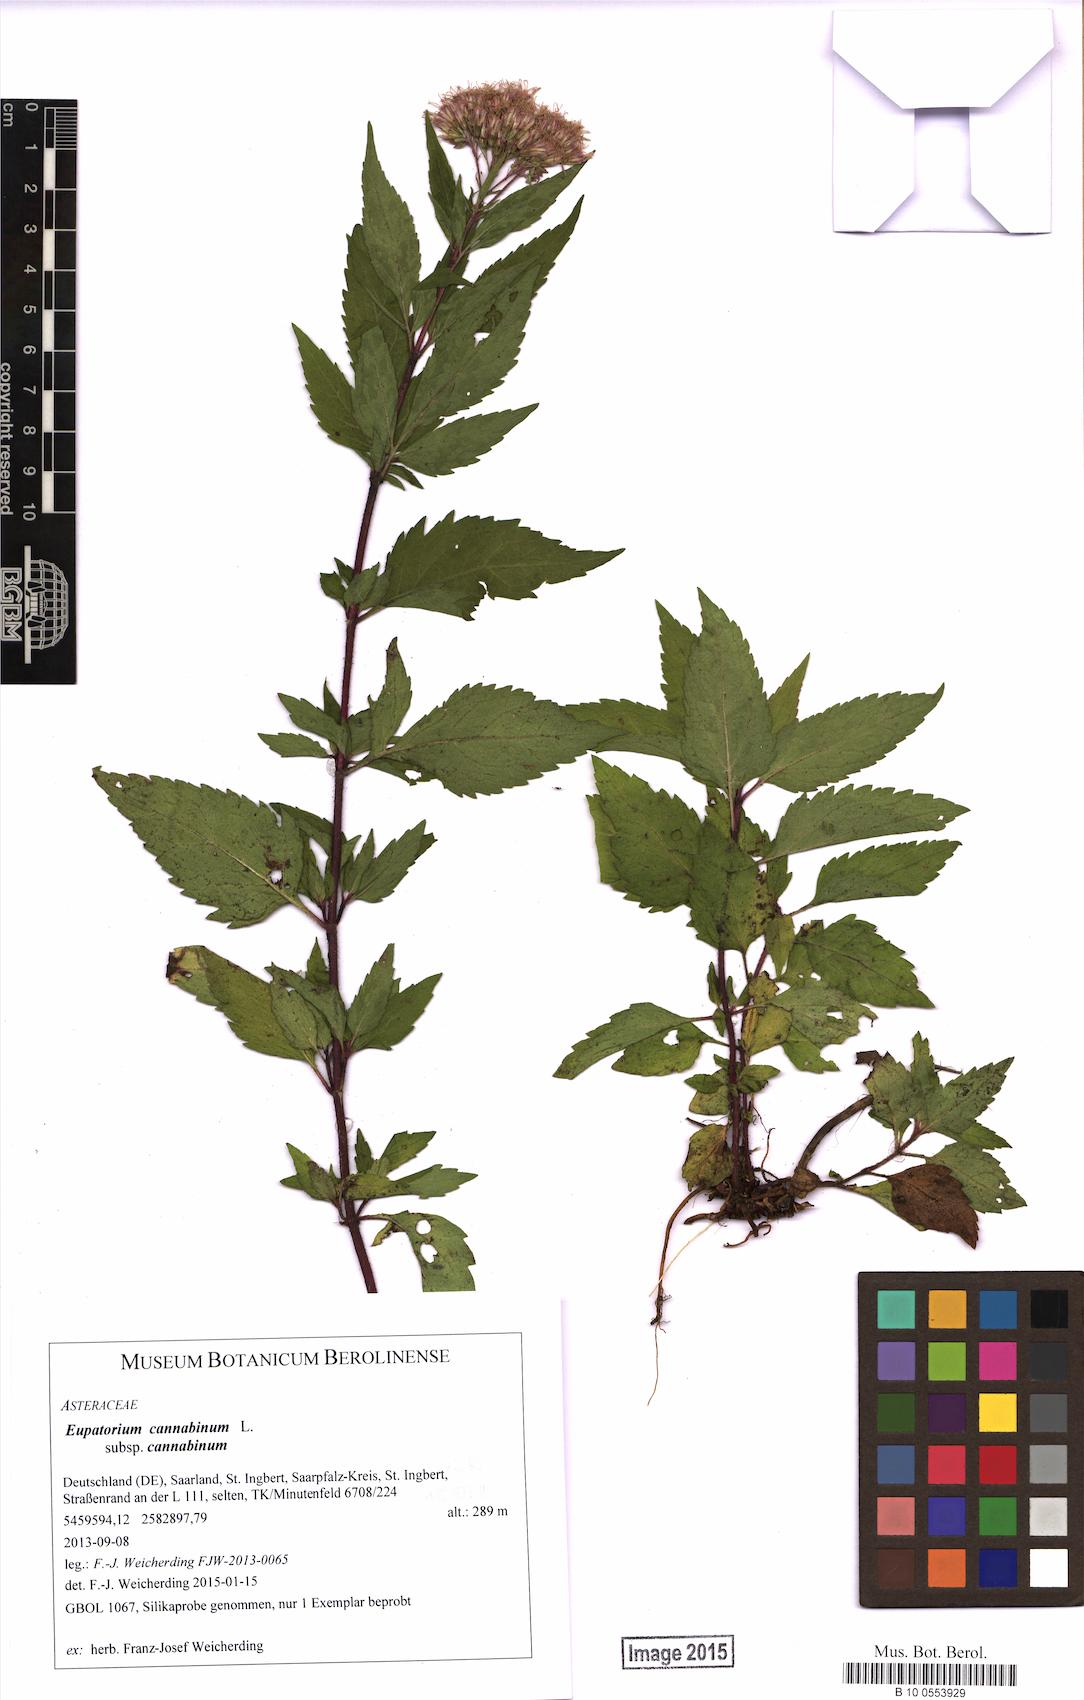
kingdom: Plantae
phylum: Tracheophyta
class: Magnoliopsida
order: Asterales
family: Asteraceae
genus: Eupatorium
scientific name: Eupatorium cannabinum
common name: Hemp-agrimony
